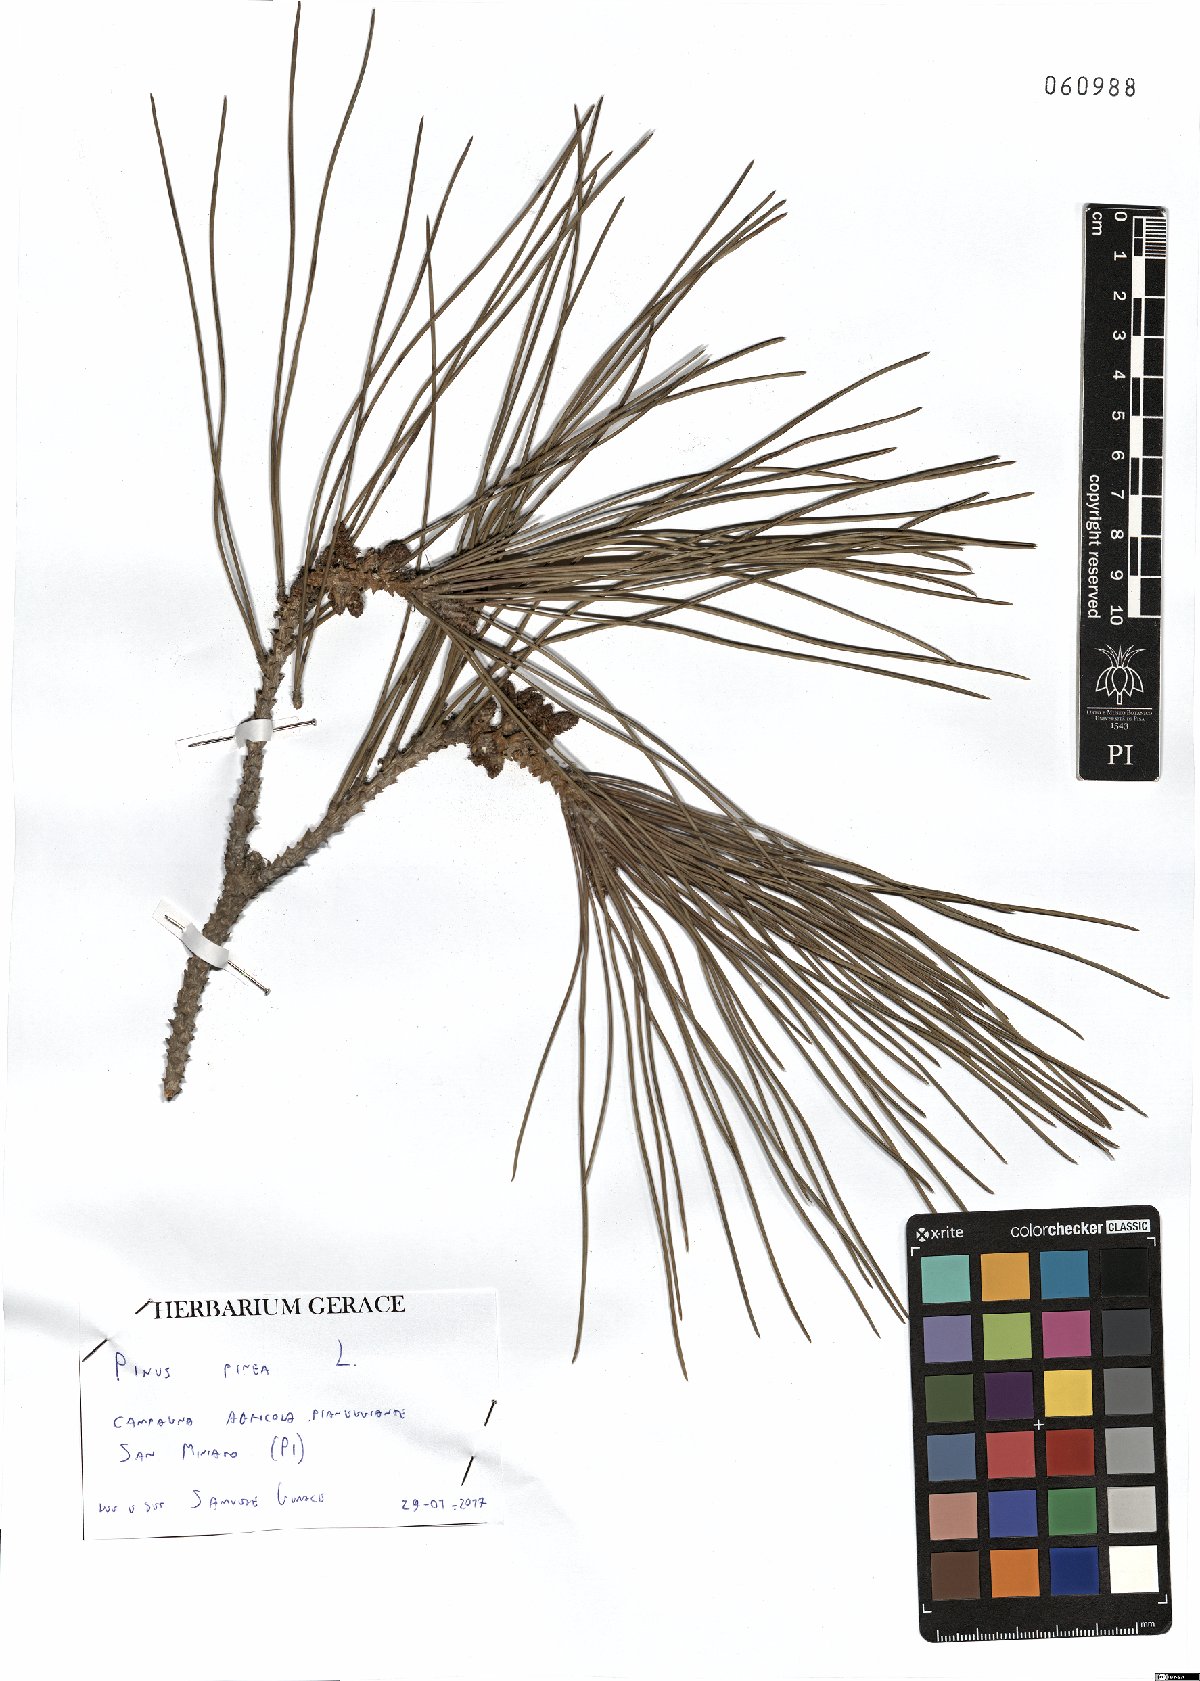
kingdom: Plantae
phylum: Tracheophyta
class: Pinopsida
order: Pinales
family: Pinaceae
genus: Pinus
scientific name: Pinus pinea
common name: Italian stone pine
